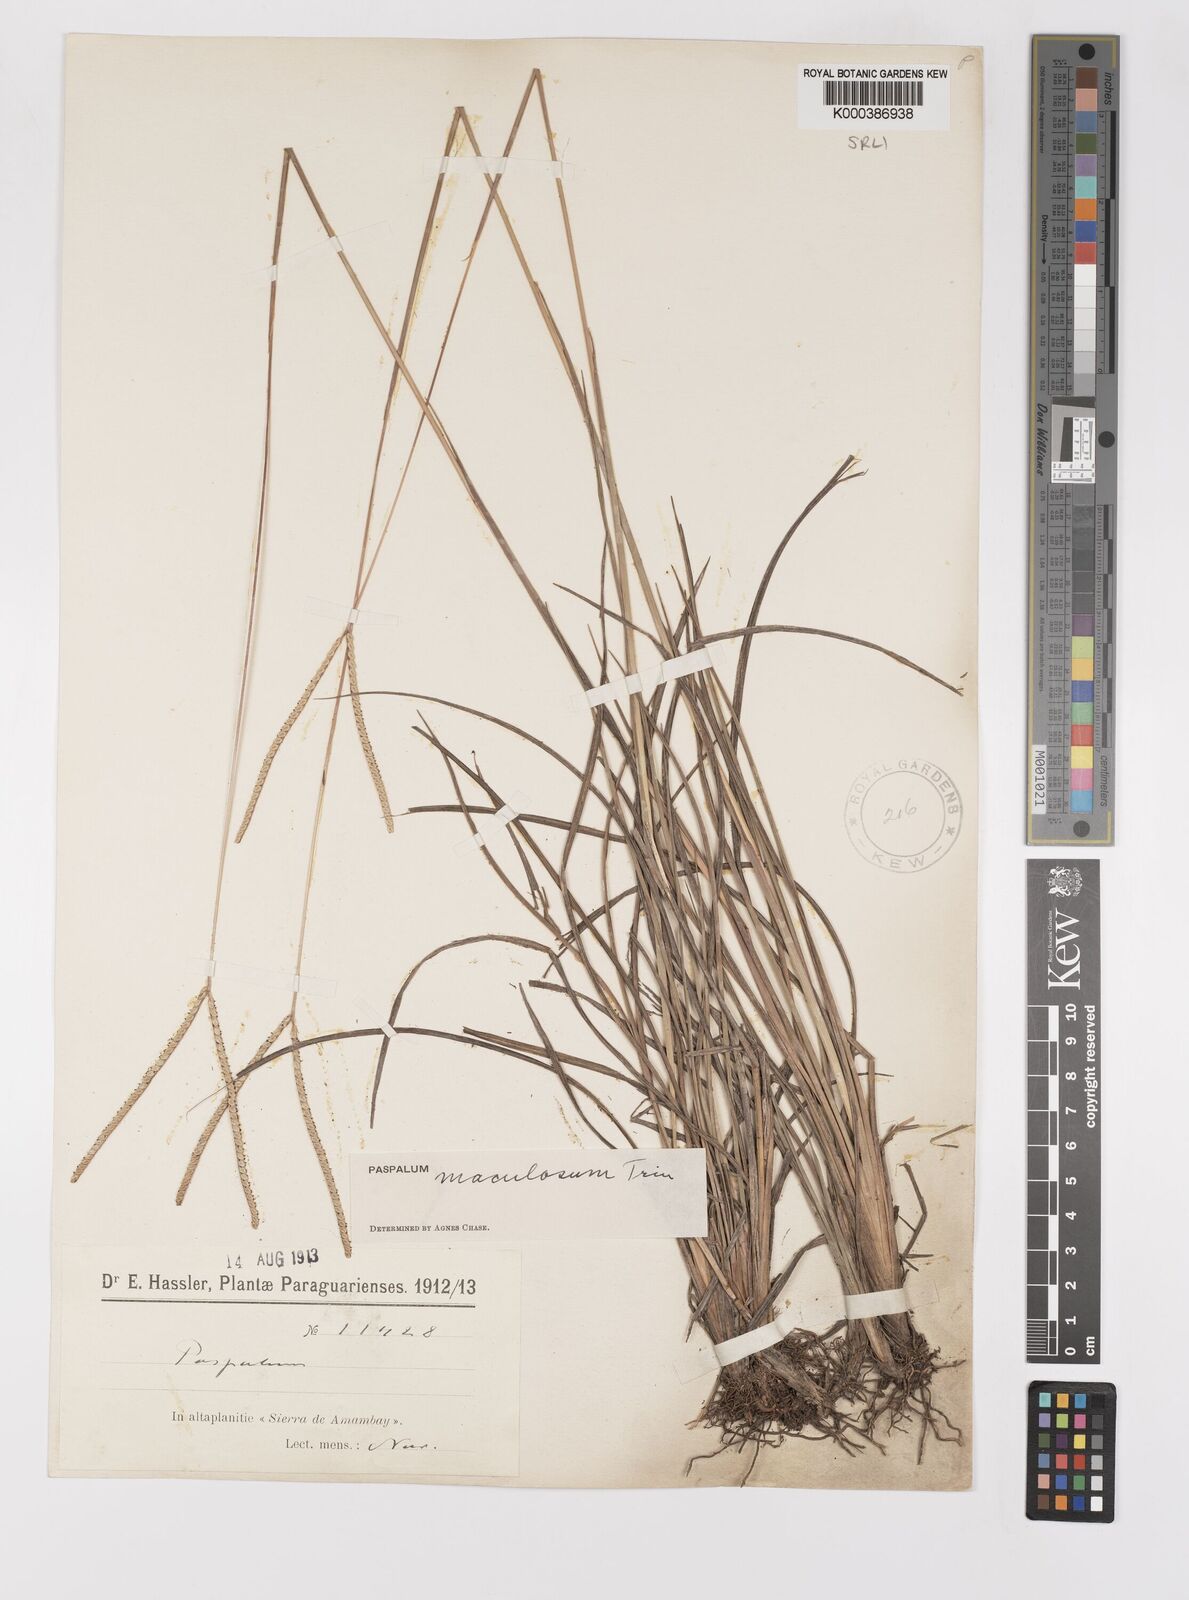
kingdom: Plantae
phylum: Tracheophyta
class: Liliopsida
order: Poales
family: Poaceae
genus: Paspalum
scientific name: Paspalum maculosum
